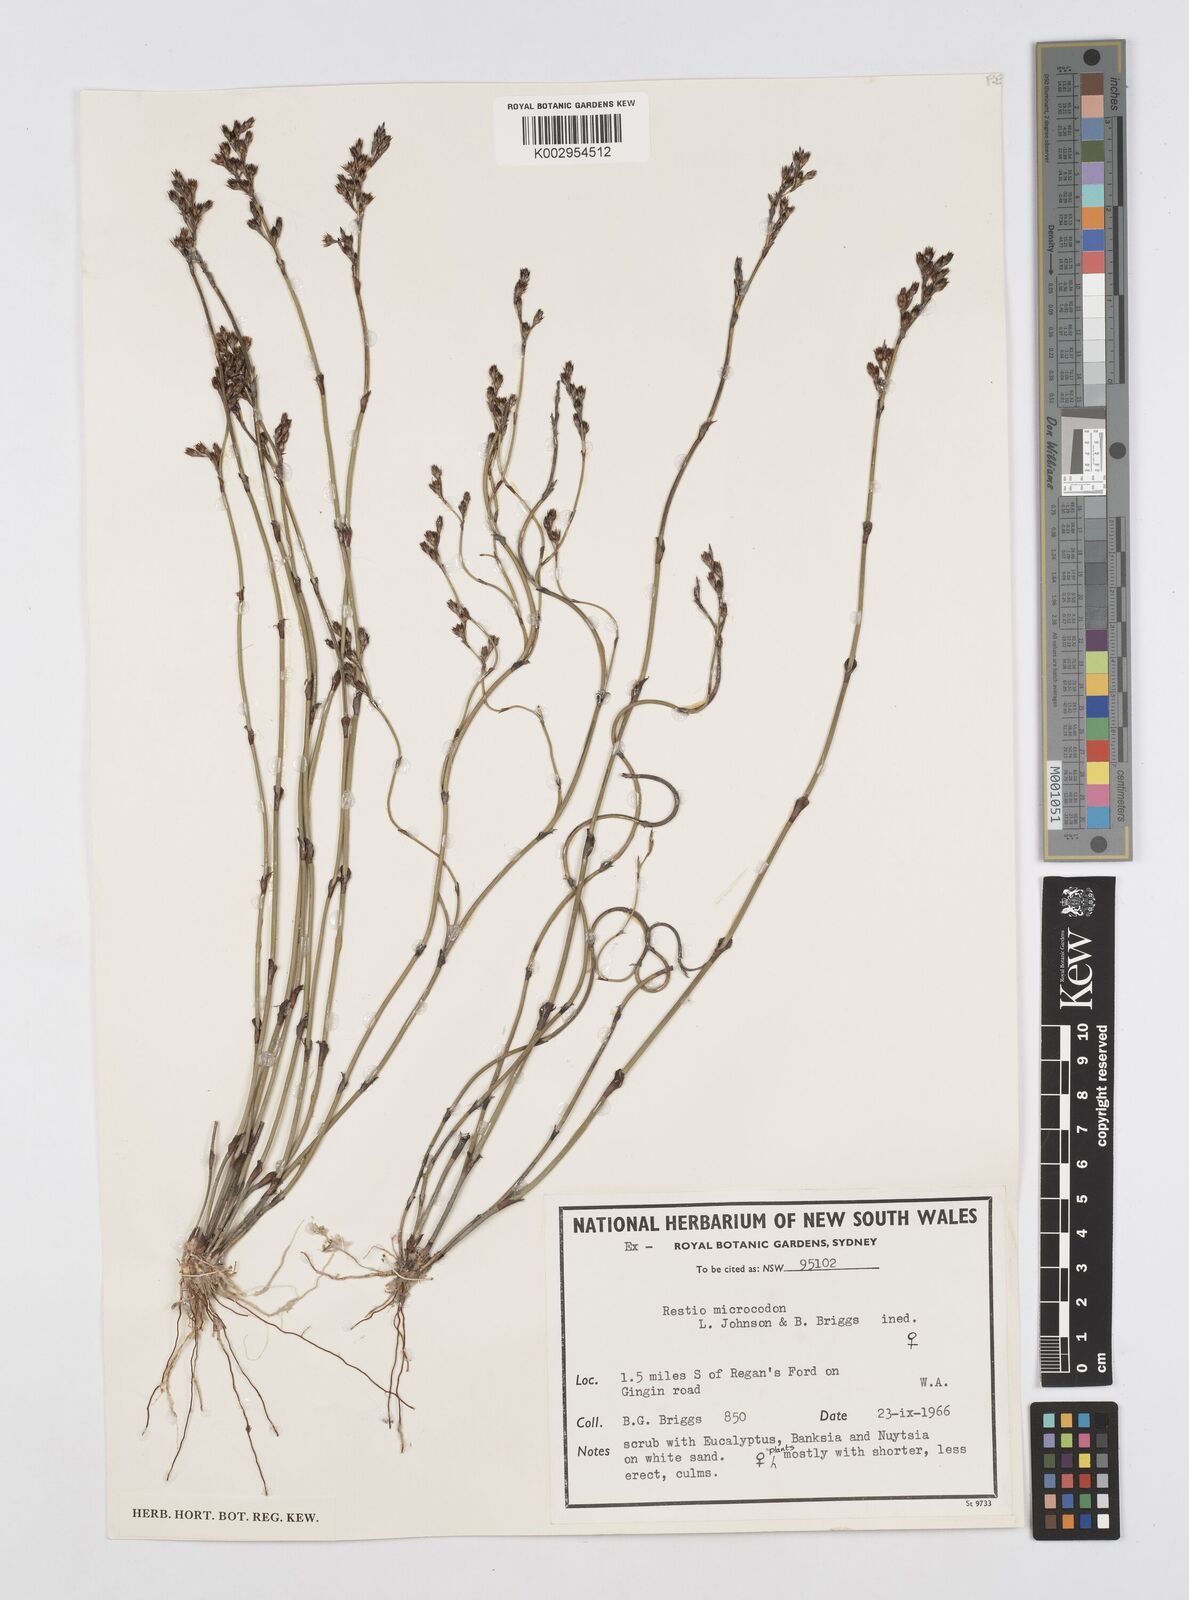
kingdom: Plantae
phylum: Tracheophyta
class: Liliopsida
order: Poales
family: Restionaceae
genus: Chordifex
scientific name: Chordifex microcodon
